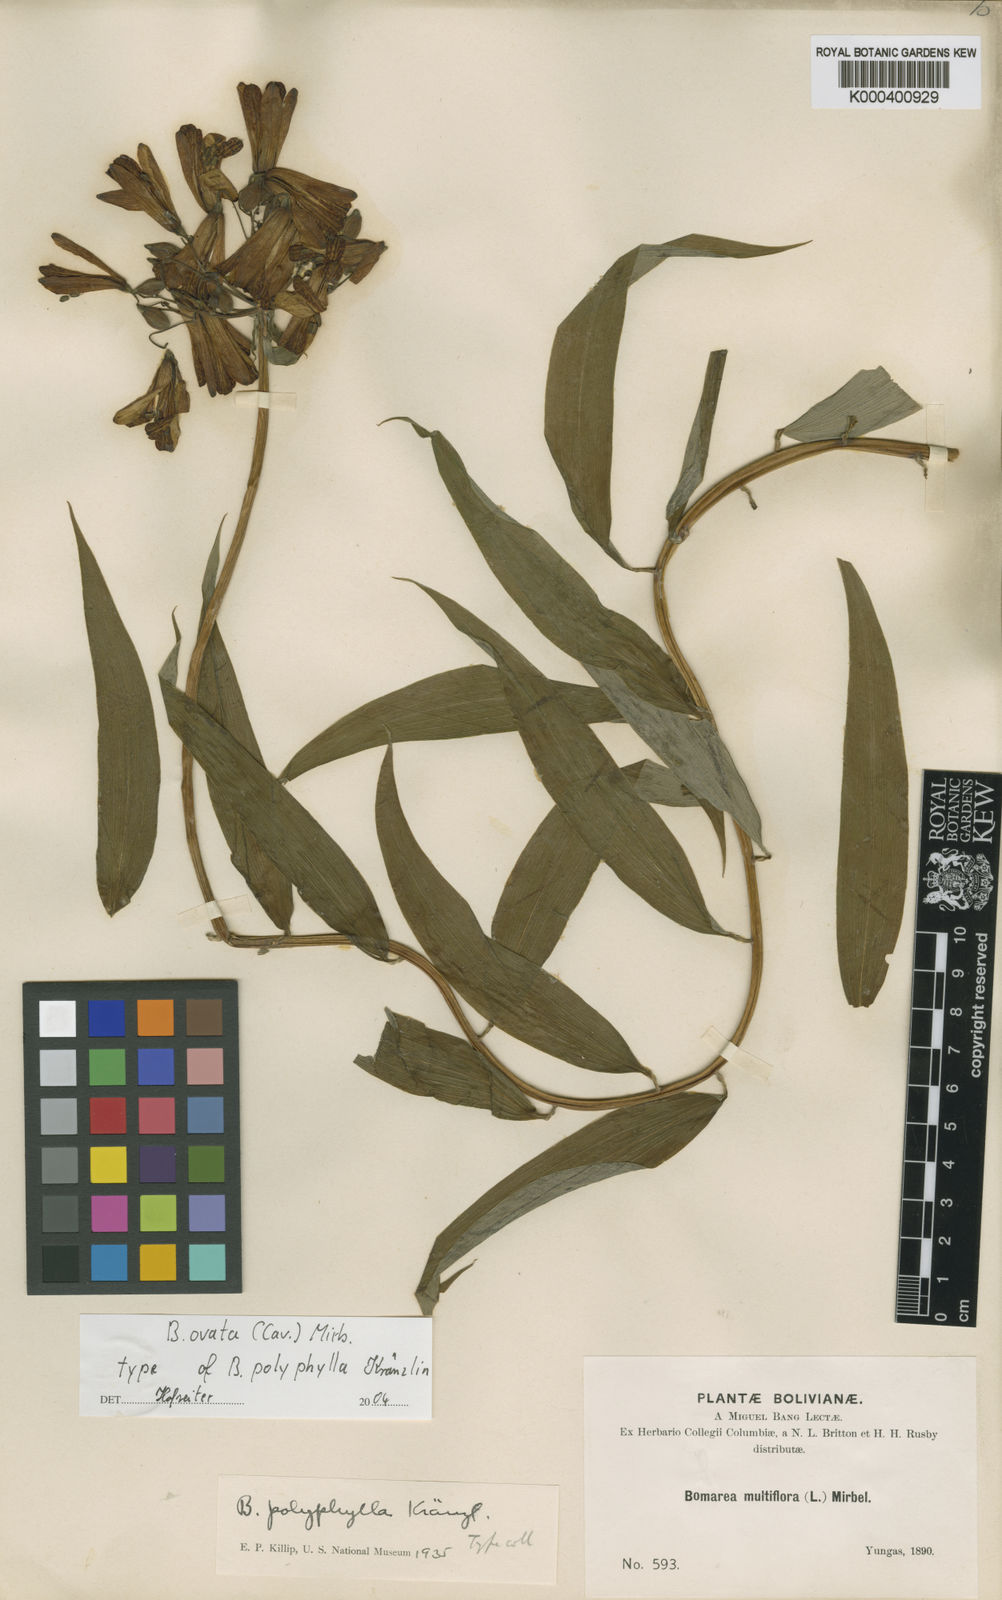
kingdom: Plantae
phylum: Tracheophyta
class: Liliopsida
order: Liliales
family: Alstroemeriaceae
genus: Bomarea
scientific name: Bomarea ovata
